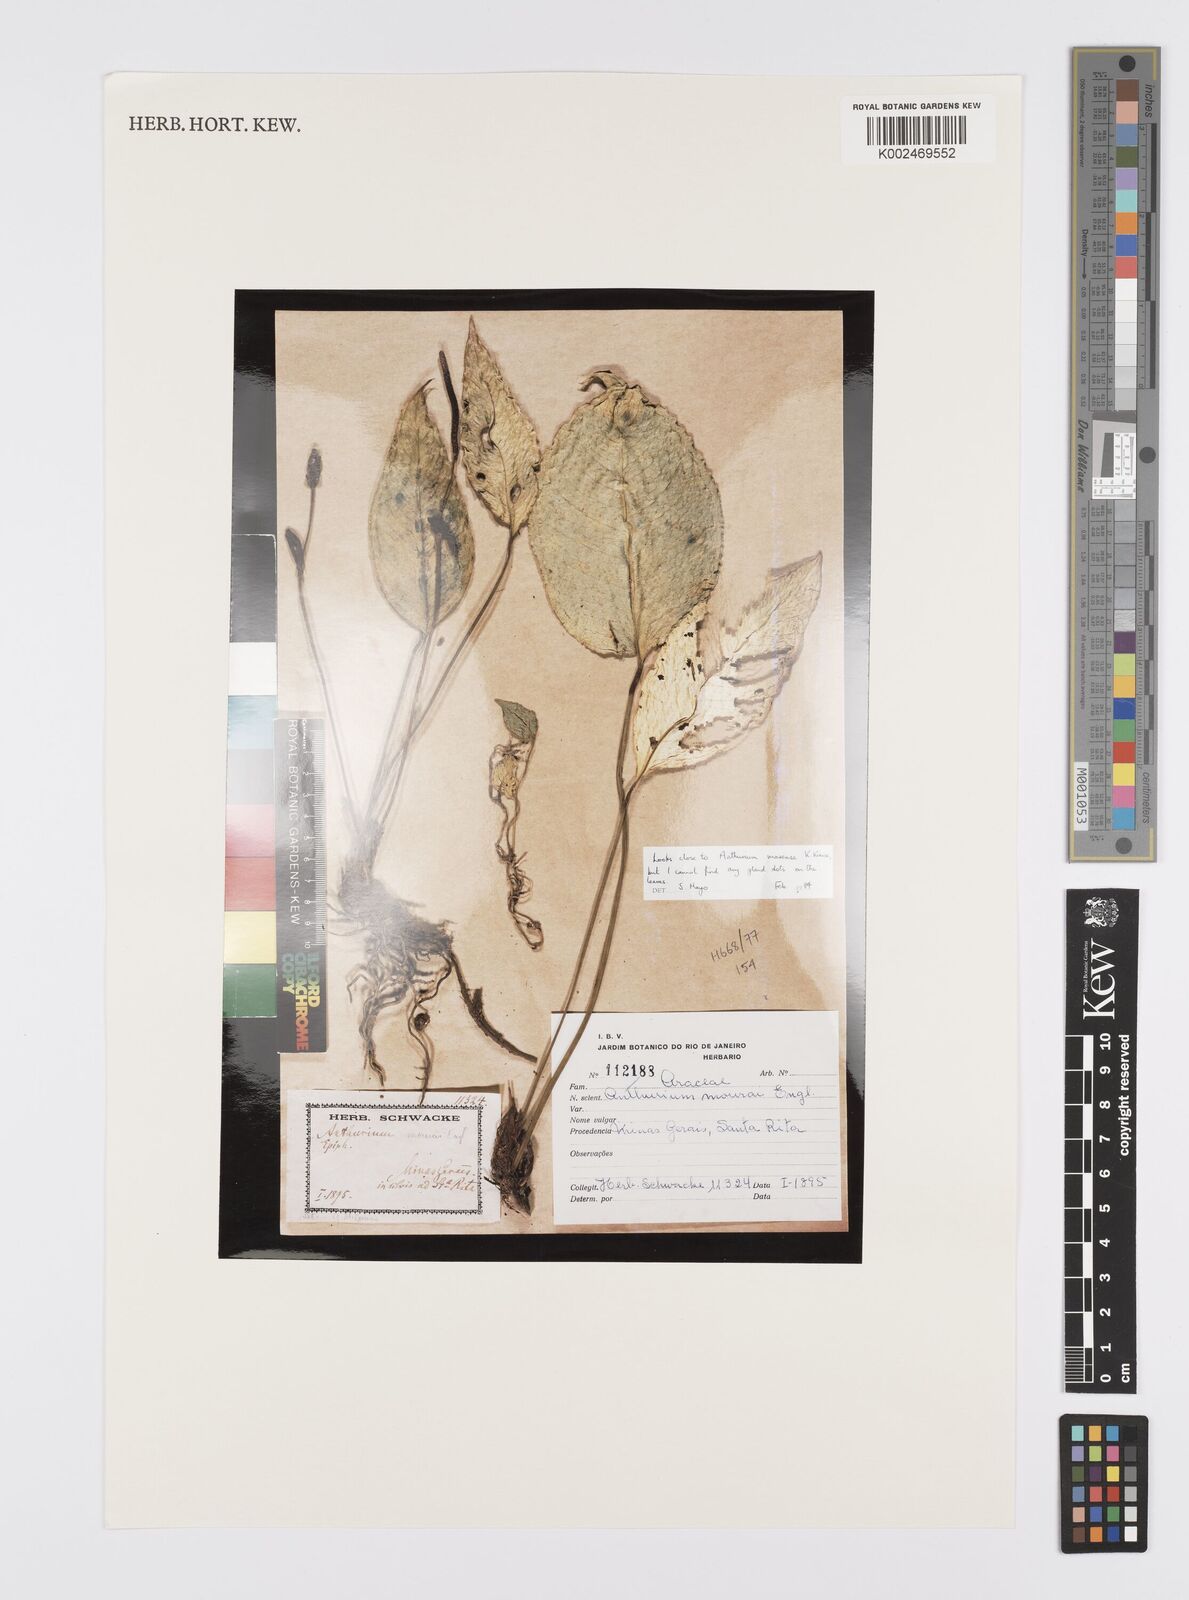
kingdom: Plantae
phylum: Tracheophyta
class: Liliopsida
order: Alismatales
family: Araceae
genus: Anthurium
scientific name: Anthurium mourae
